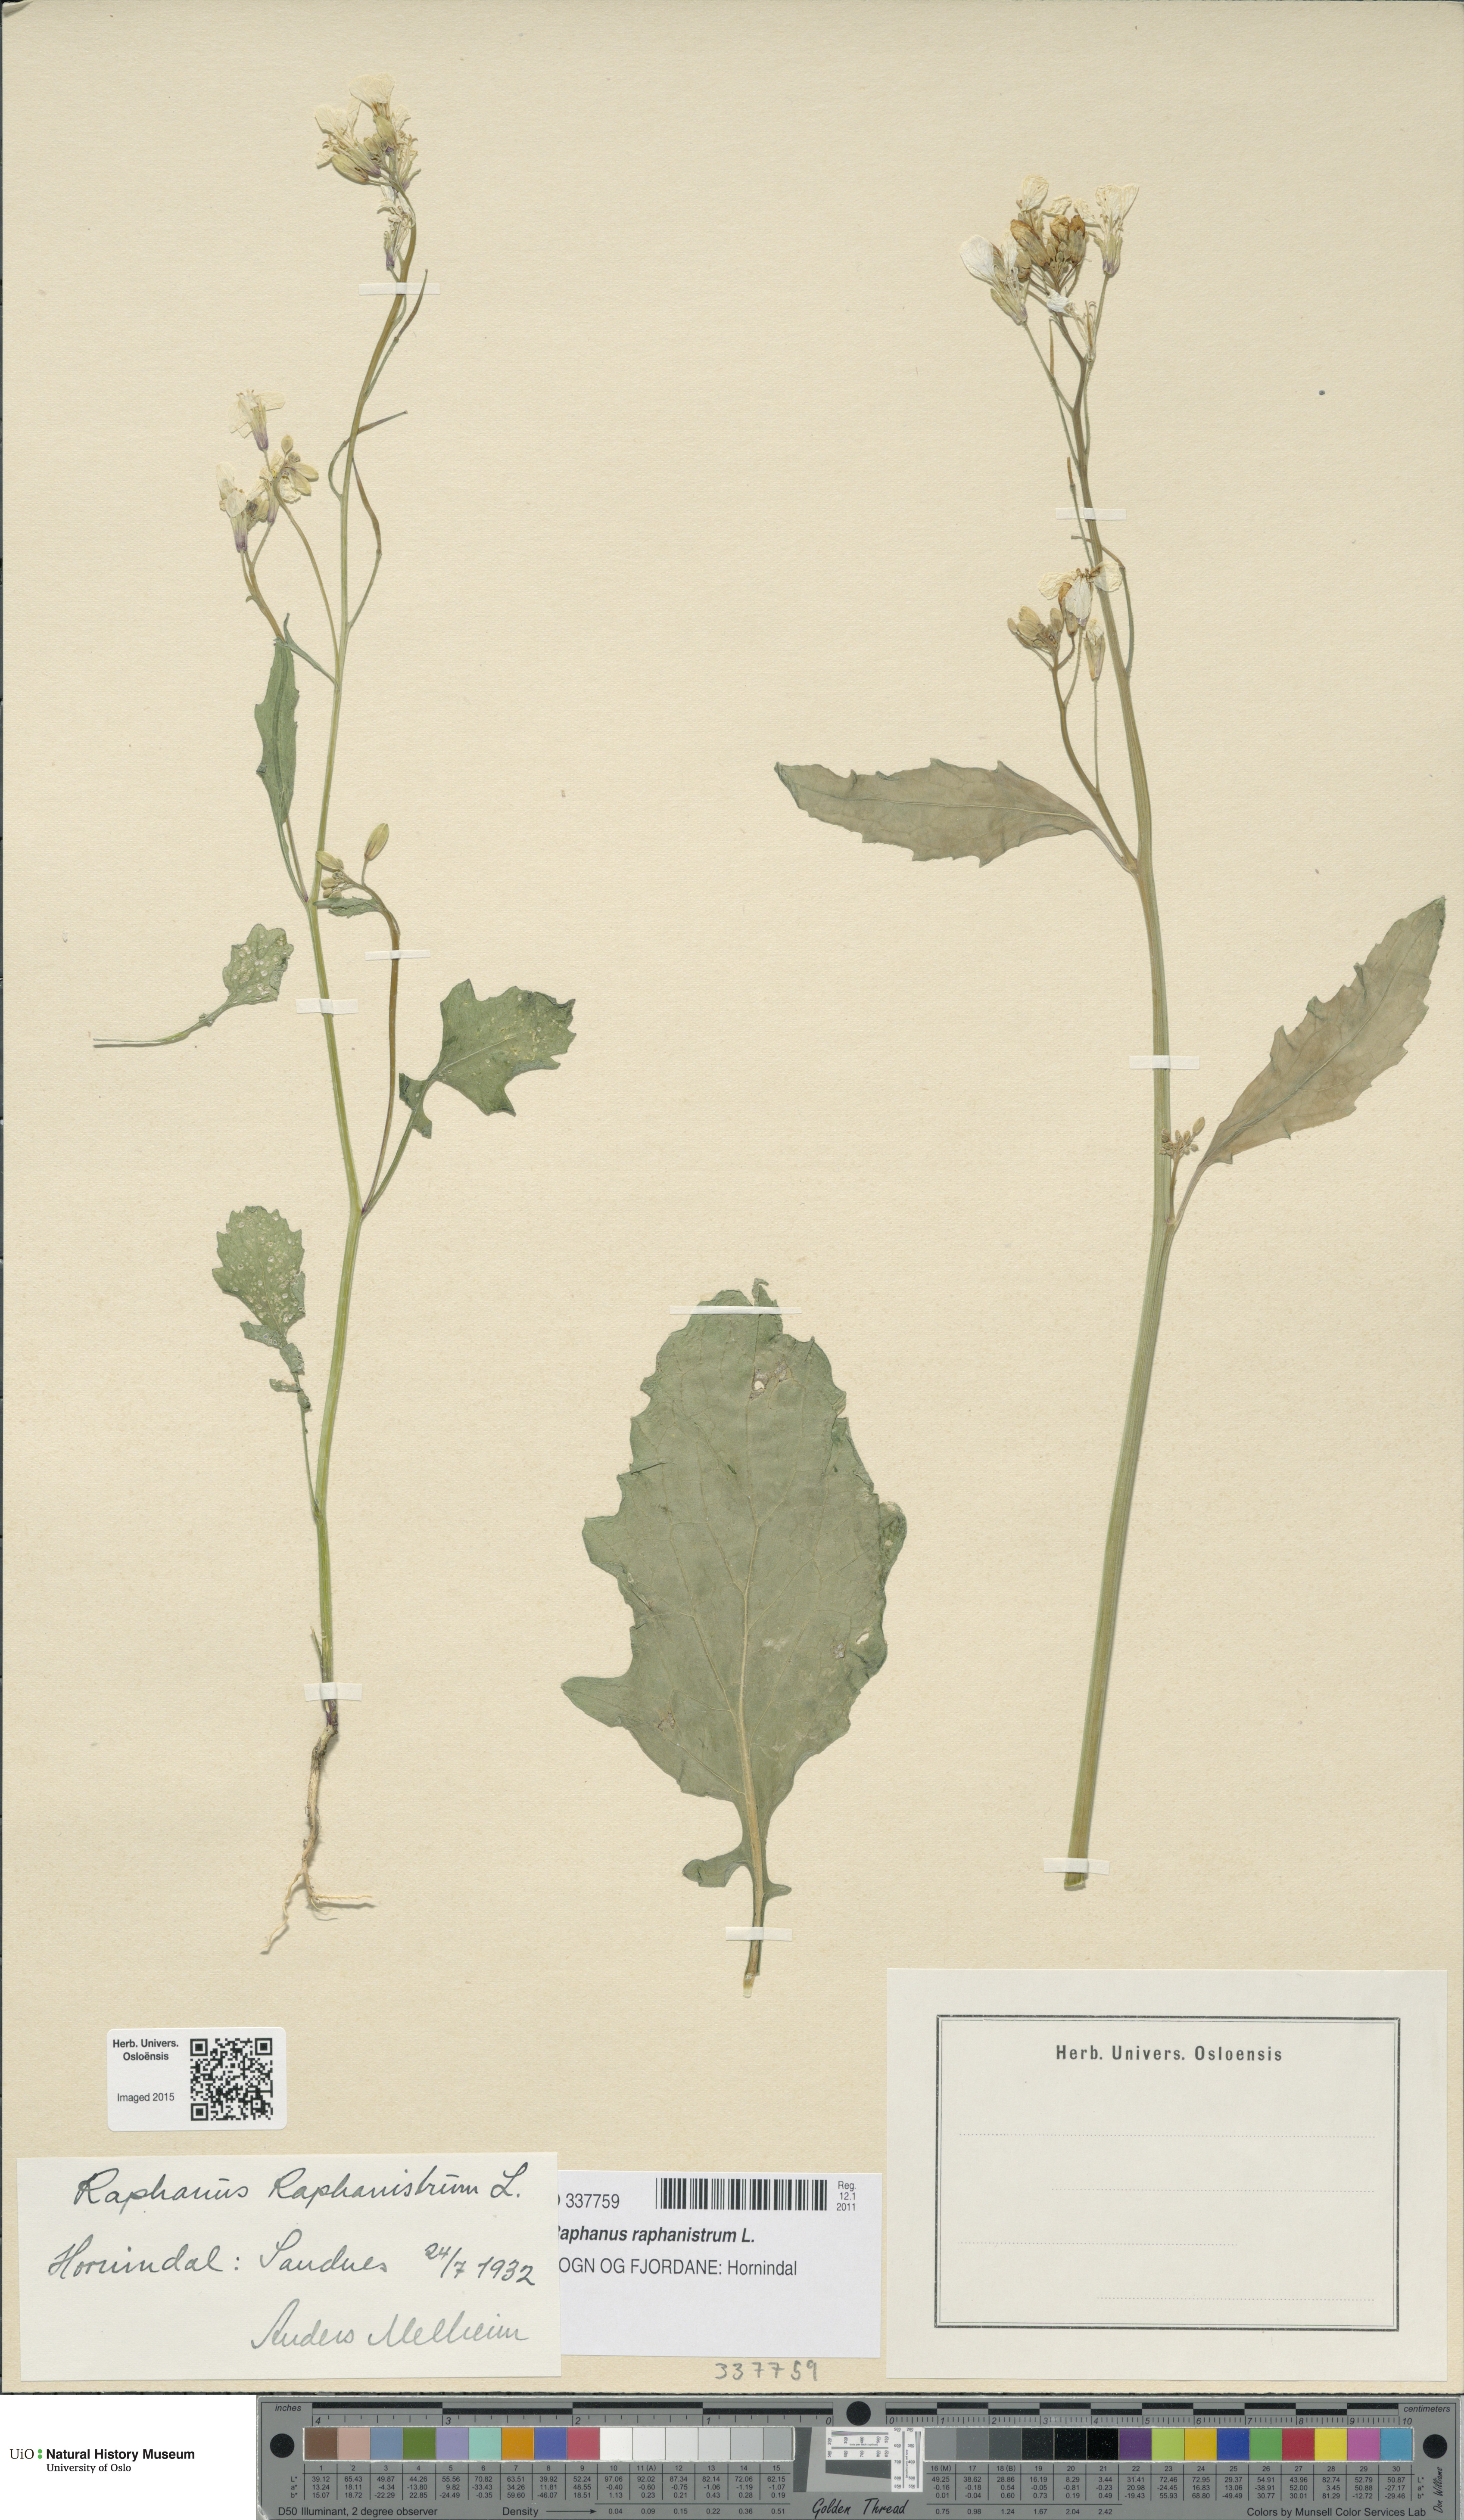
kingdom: Plantae
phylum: Tracheophyta
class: Magnoliopsida
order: Brassicales
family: Brassicaceae
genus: Raphanus
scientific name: Raphanus raphanistrum
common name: Wild radish
